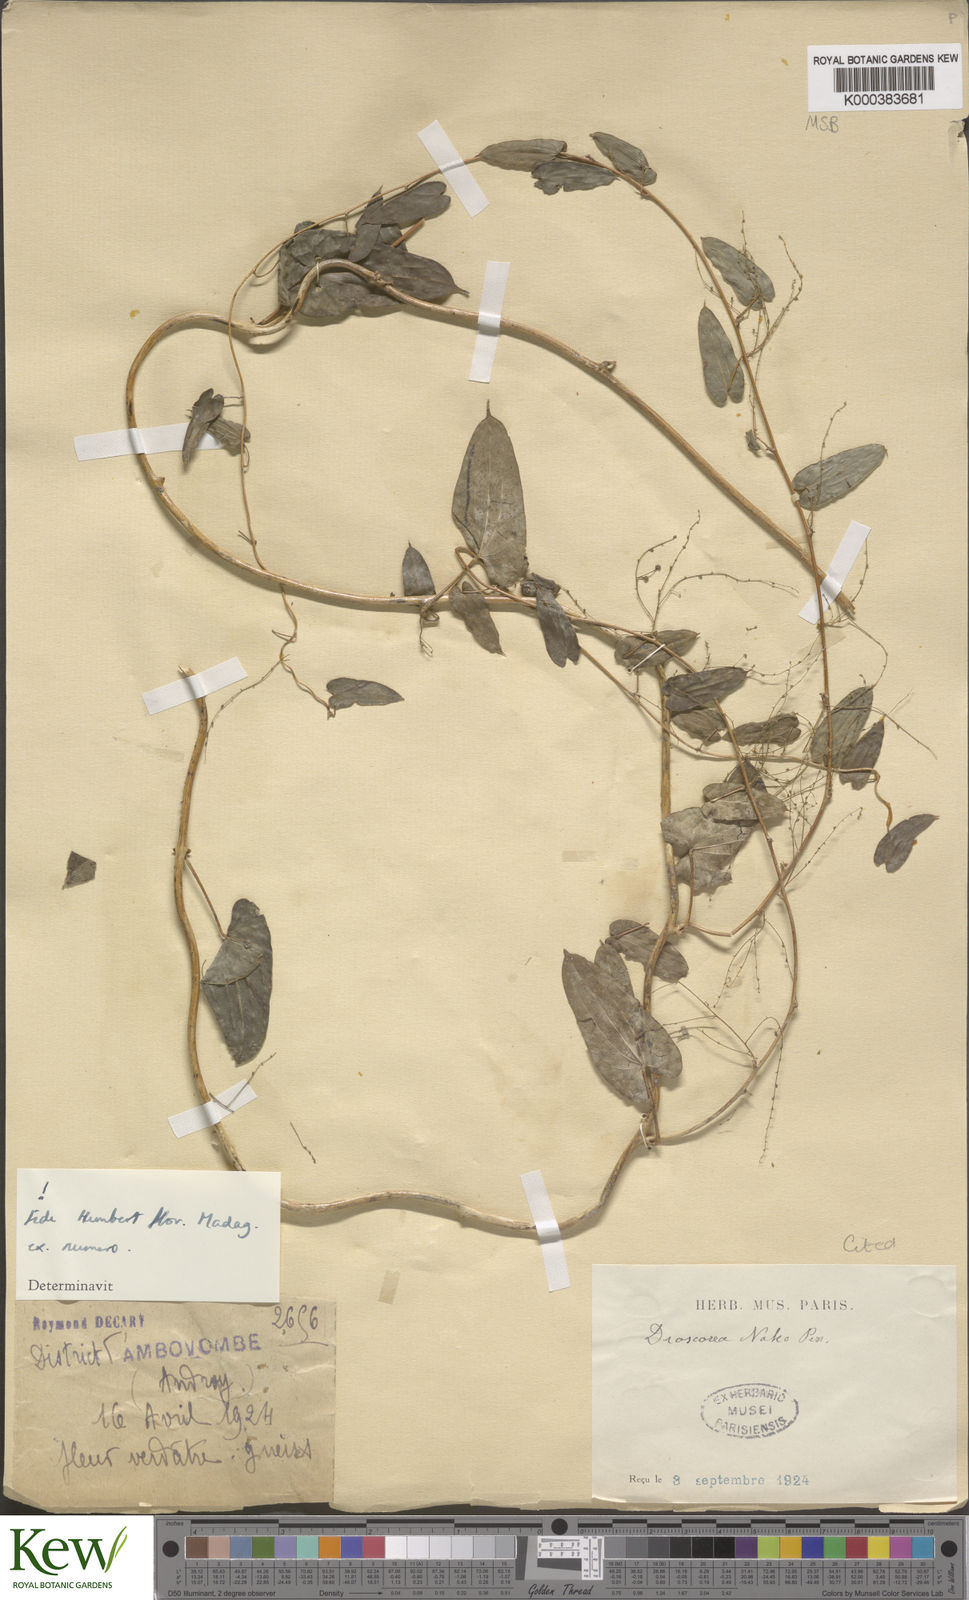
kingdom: Plantae
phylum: Tracheophyta
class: Liliopsida
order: Dioscoreales
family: Dioscoreaceae
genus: Dioscorea
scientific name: Dioscorea
